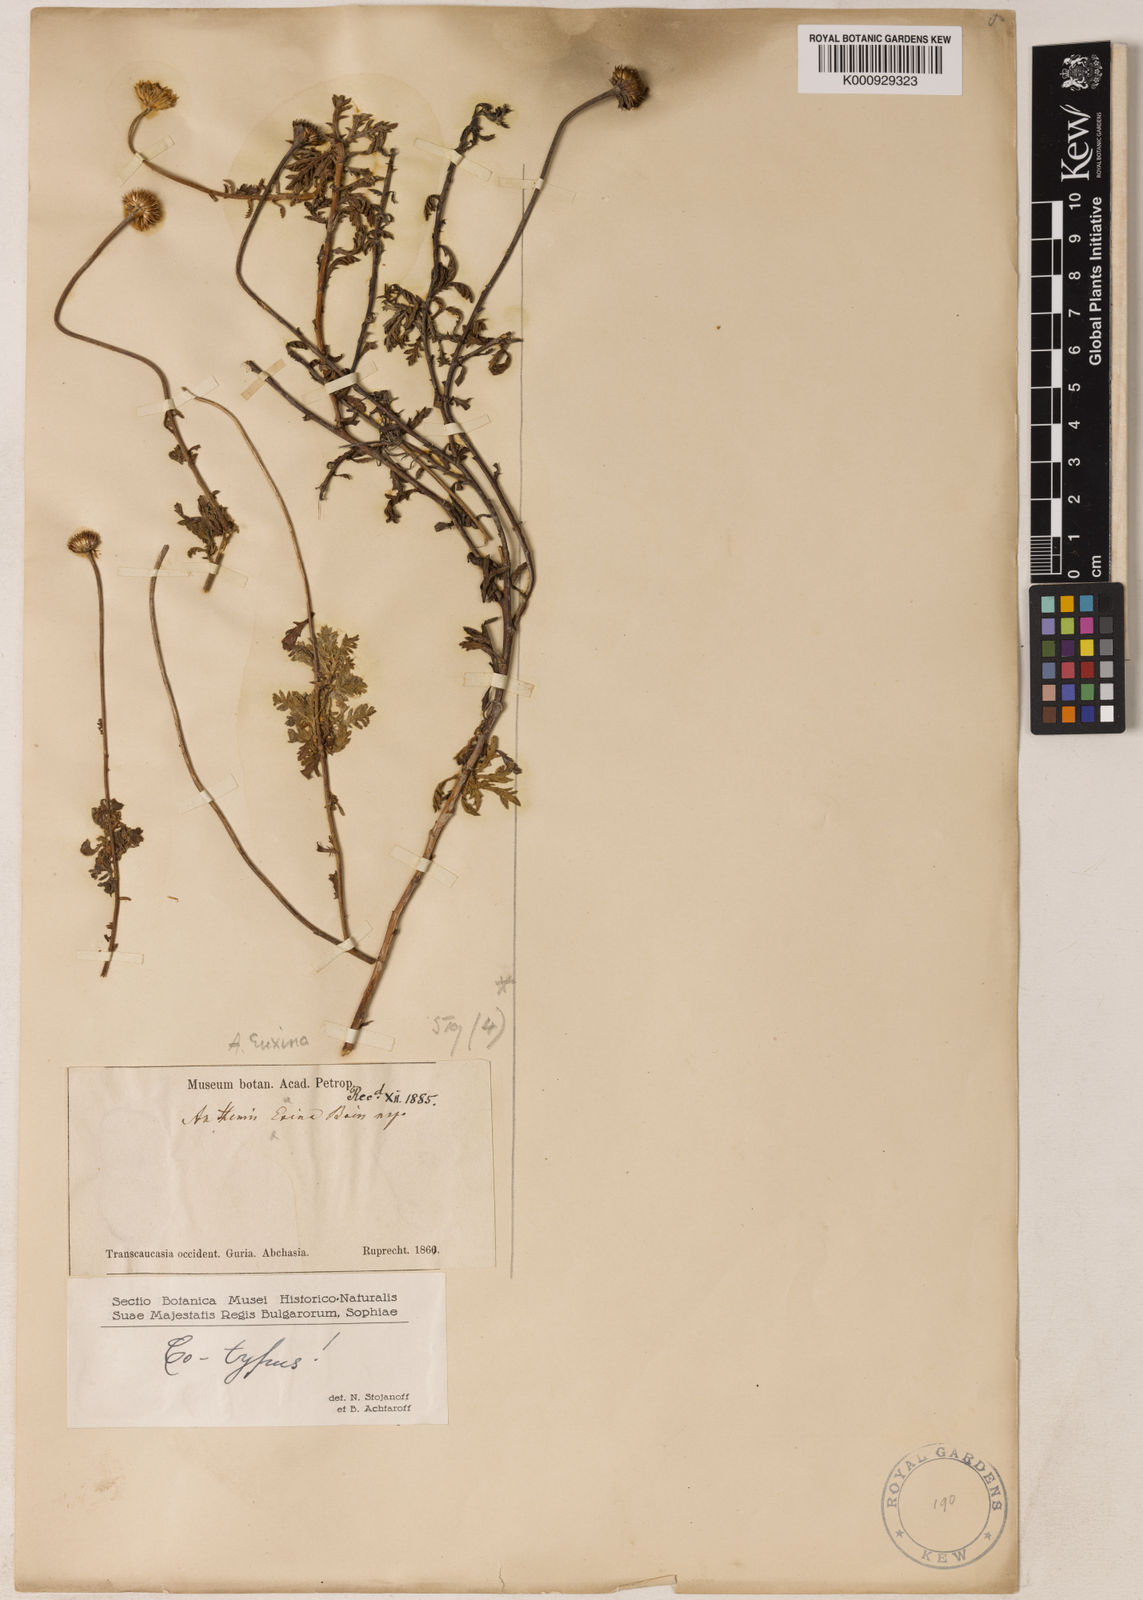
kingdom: Plantae
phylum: Tracheophyta
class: Magnoliopsida
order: Asterales
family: Asteraceae
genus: Cota
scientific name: Cota tinctoria
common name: Golden chamomile
